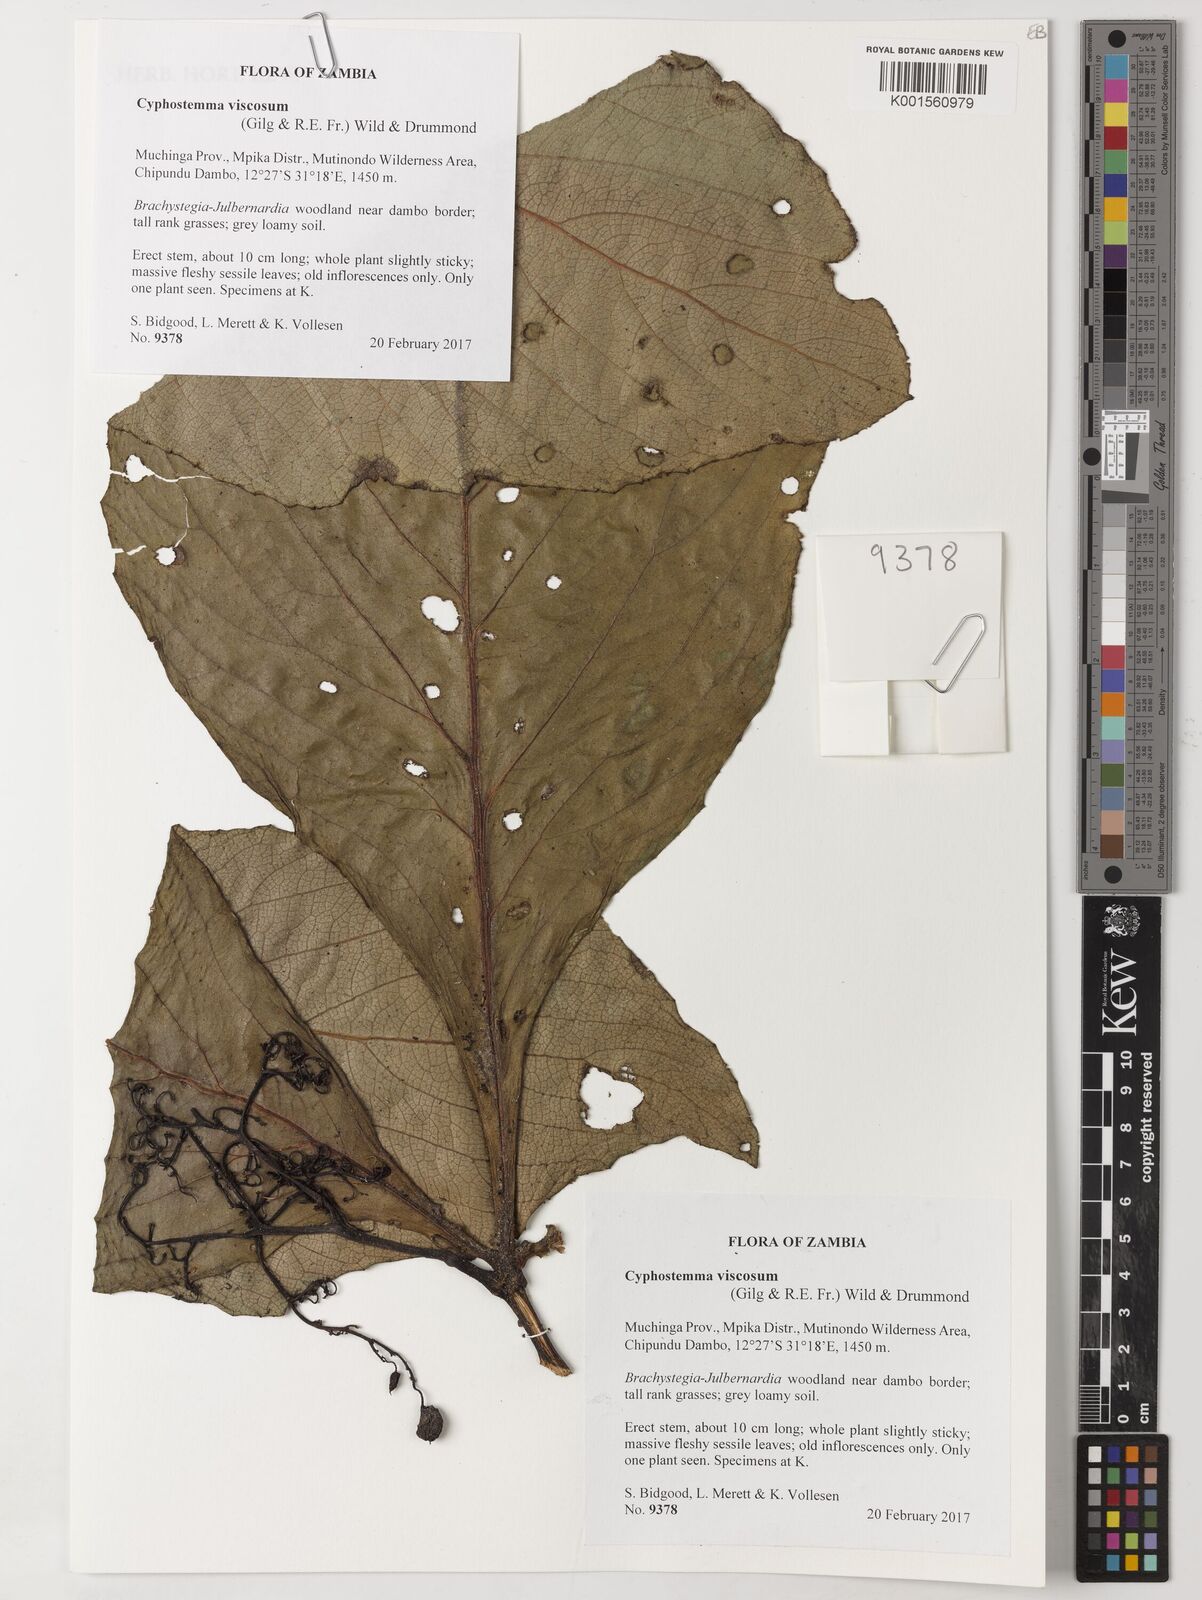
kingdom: Plantae
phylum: Tracheophyta
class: Magnoliopsida
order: Vitales
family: Vitaceae
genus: Cyphostemma
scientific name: Cyphostemma viscosum
